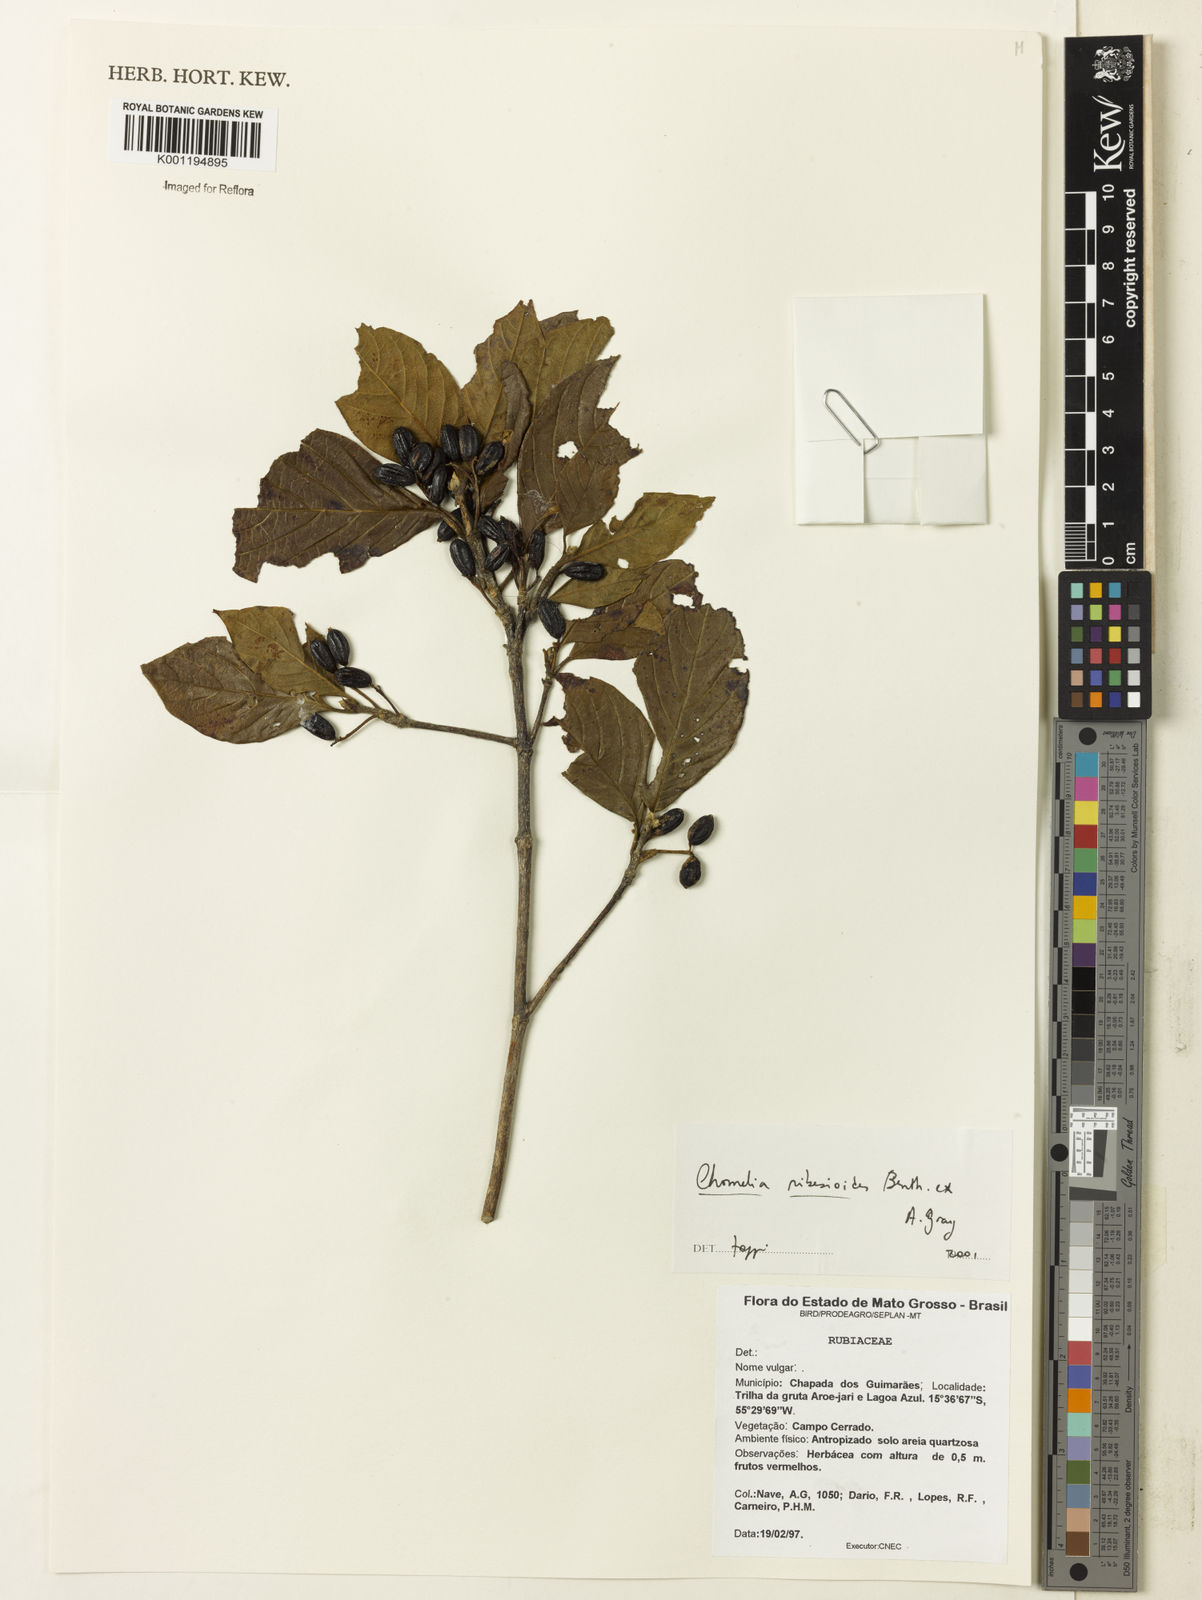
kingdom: Plantae
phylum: Tracheophyta
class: Magnoliopsida
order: Gentianales
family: Rubiaceae
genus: Chomelia
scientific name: Chomelia ribesioides
